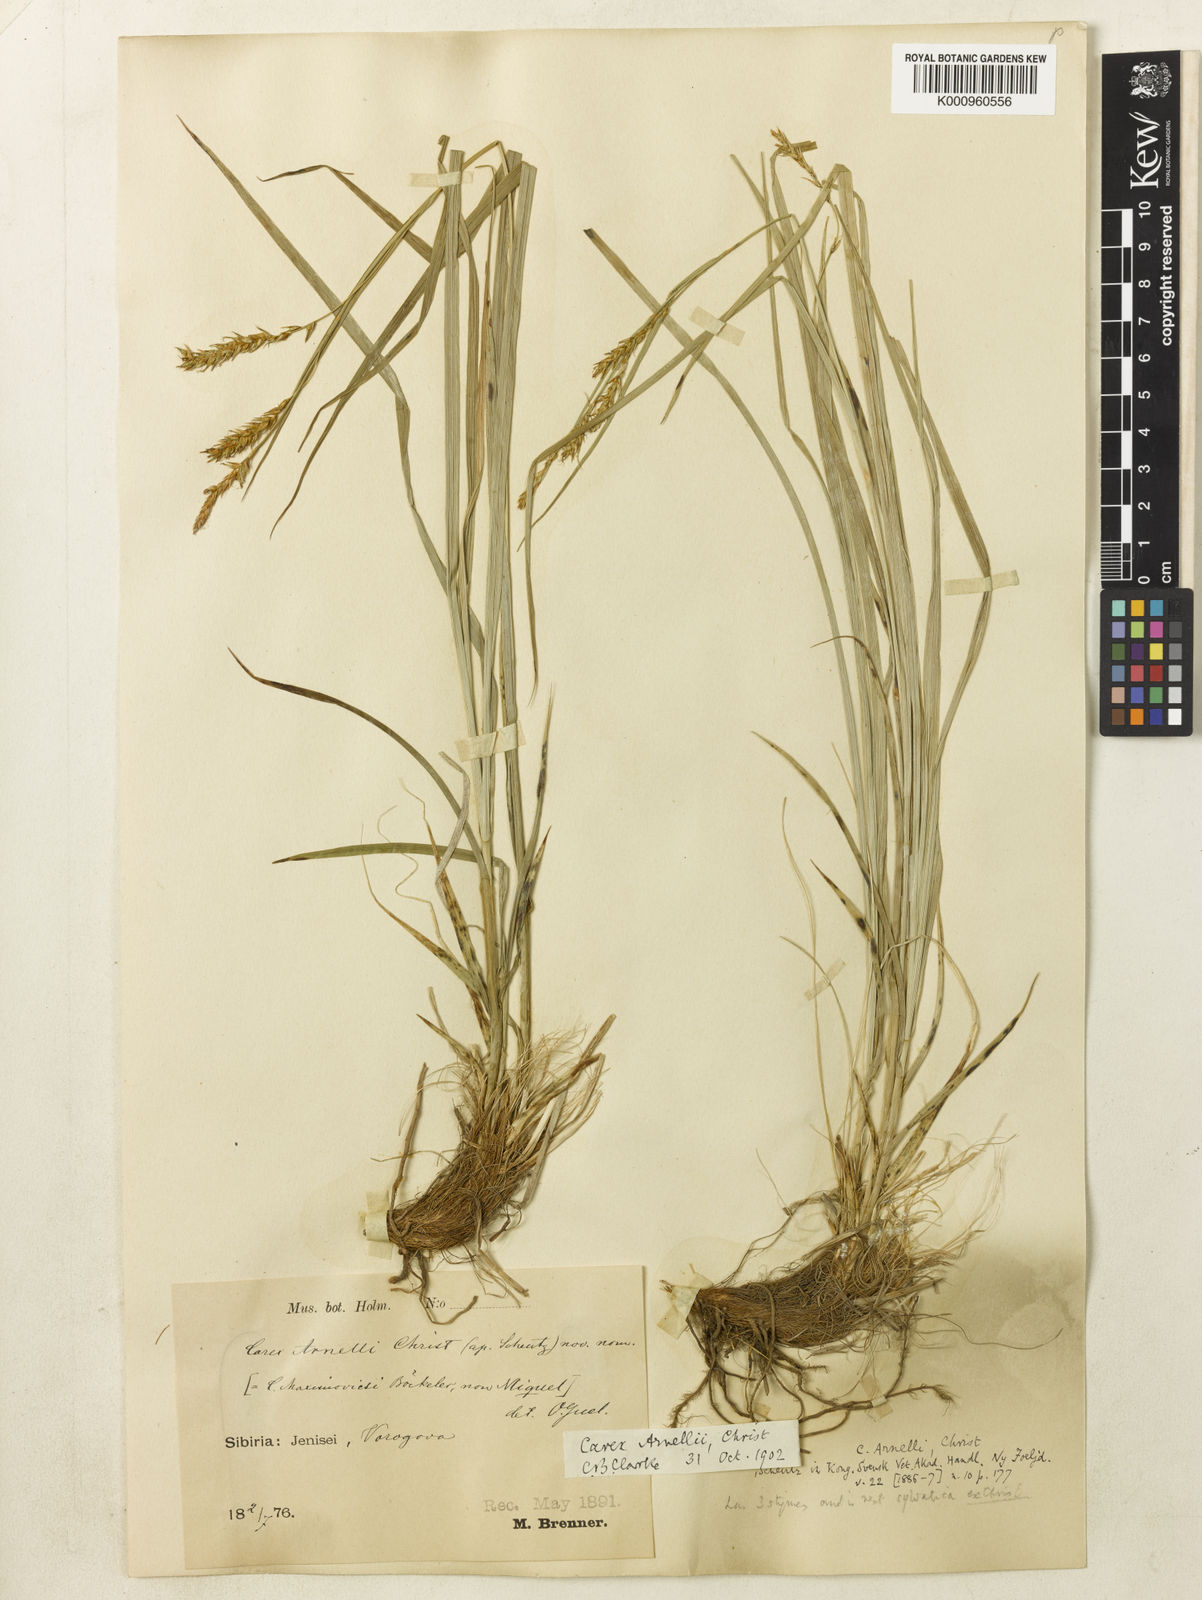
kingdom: Plantae
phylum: Tracheophyta
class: Liliopsida
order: Poales
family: Cyperaceae
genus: Carex
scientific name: Carex arnellii
